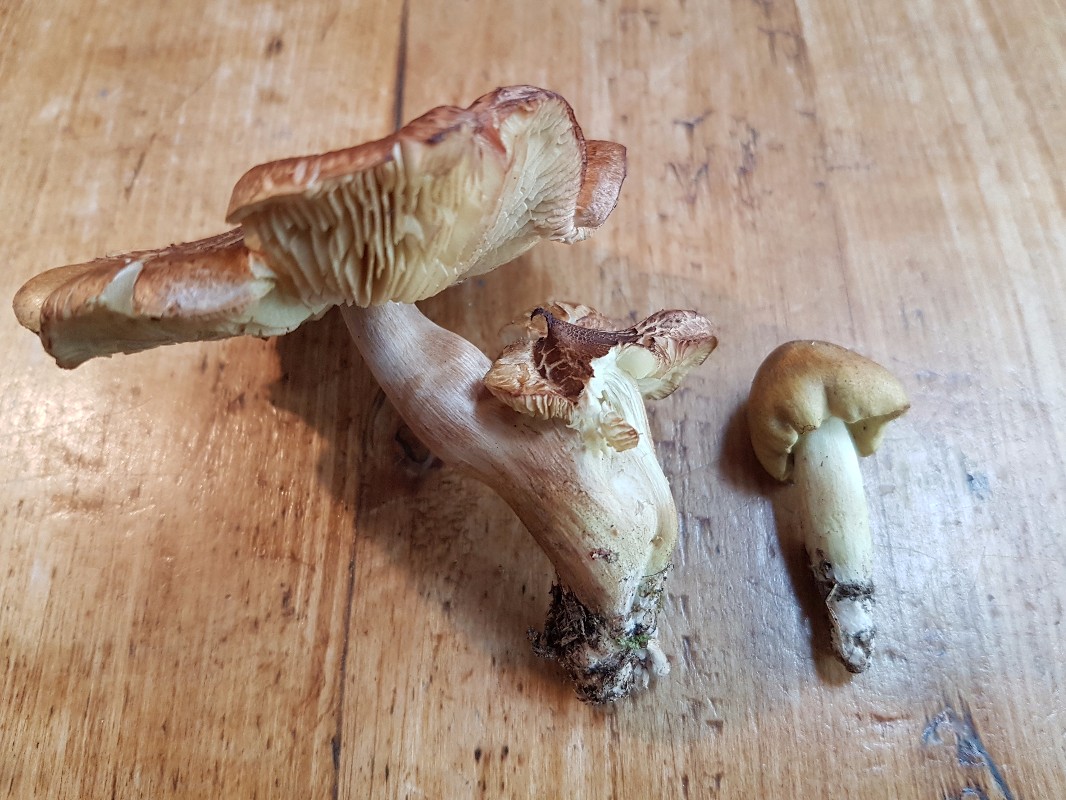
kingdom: Fungi
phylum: Basidiomycota
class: Agaricomycetes
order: Agaricales
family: Tricholomataceae
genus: Tricholoma
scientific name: Tricholoma aestuans
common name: kegle-ridderhat
